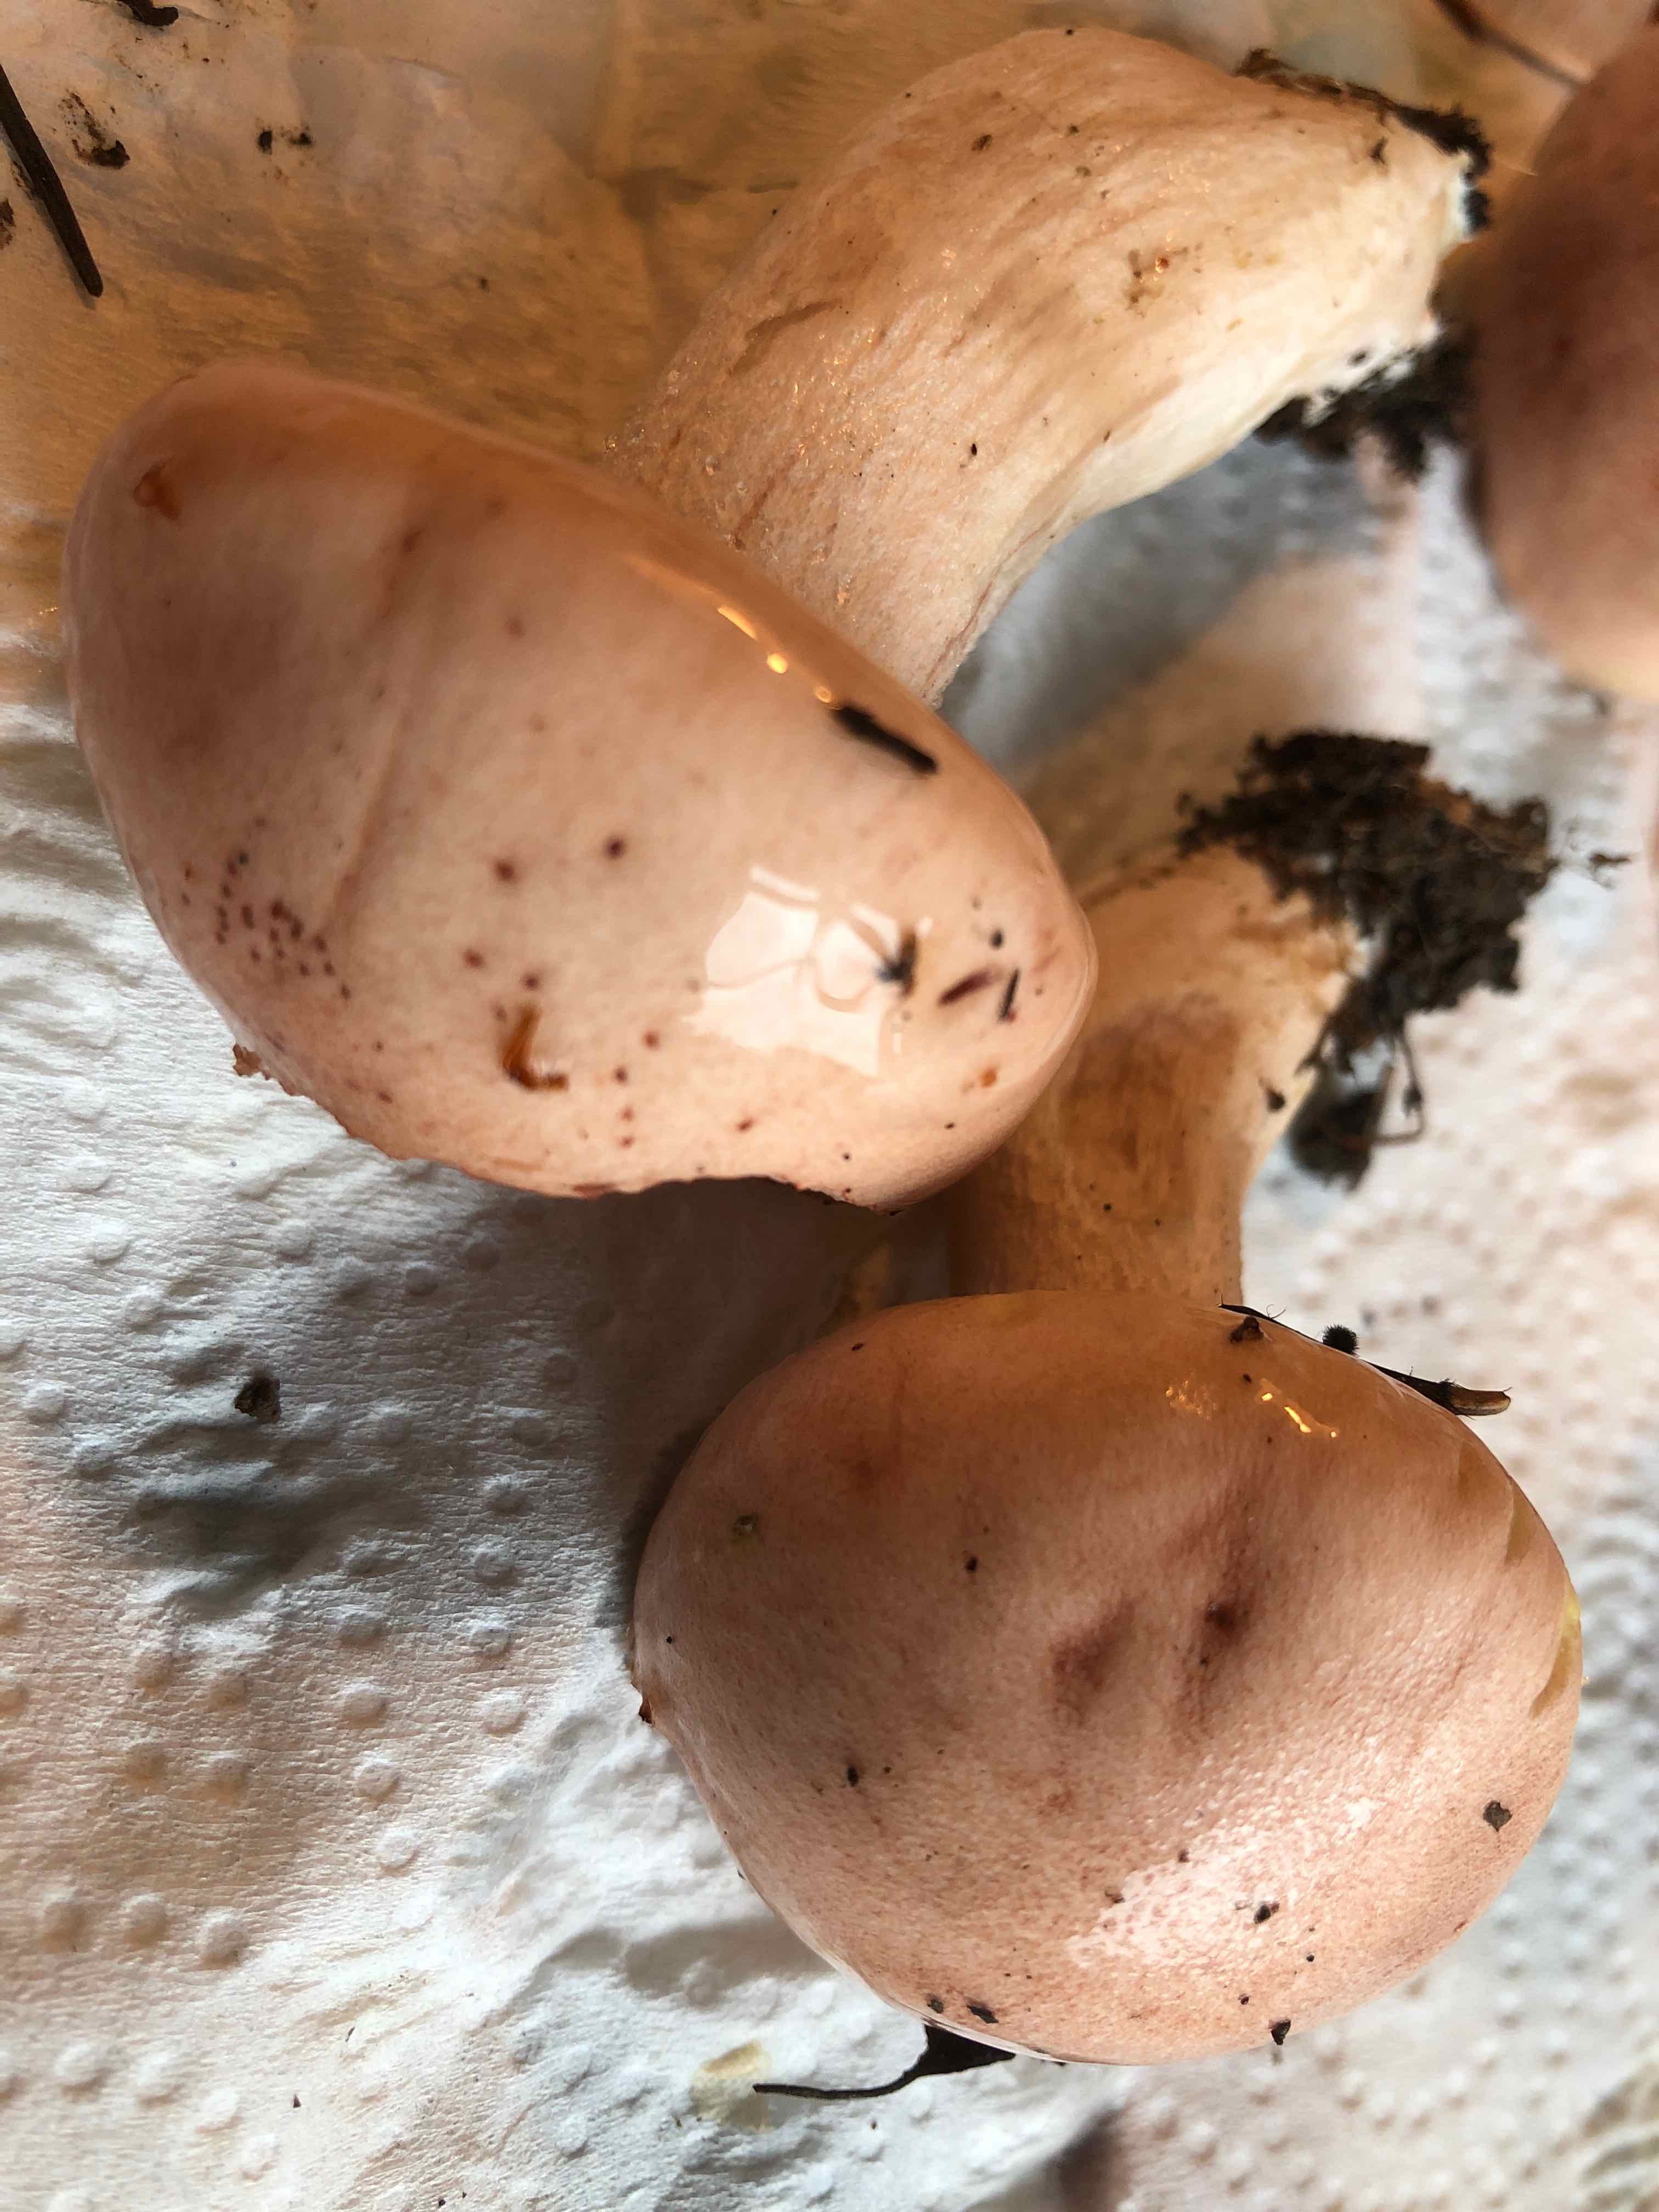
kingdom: Fungi
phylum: Basidiomycota
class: Agaricomycetes
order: Agaricales
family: Hygrophoraceae
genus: Hygrophorus
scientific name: Hygrophorus erubescens
